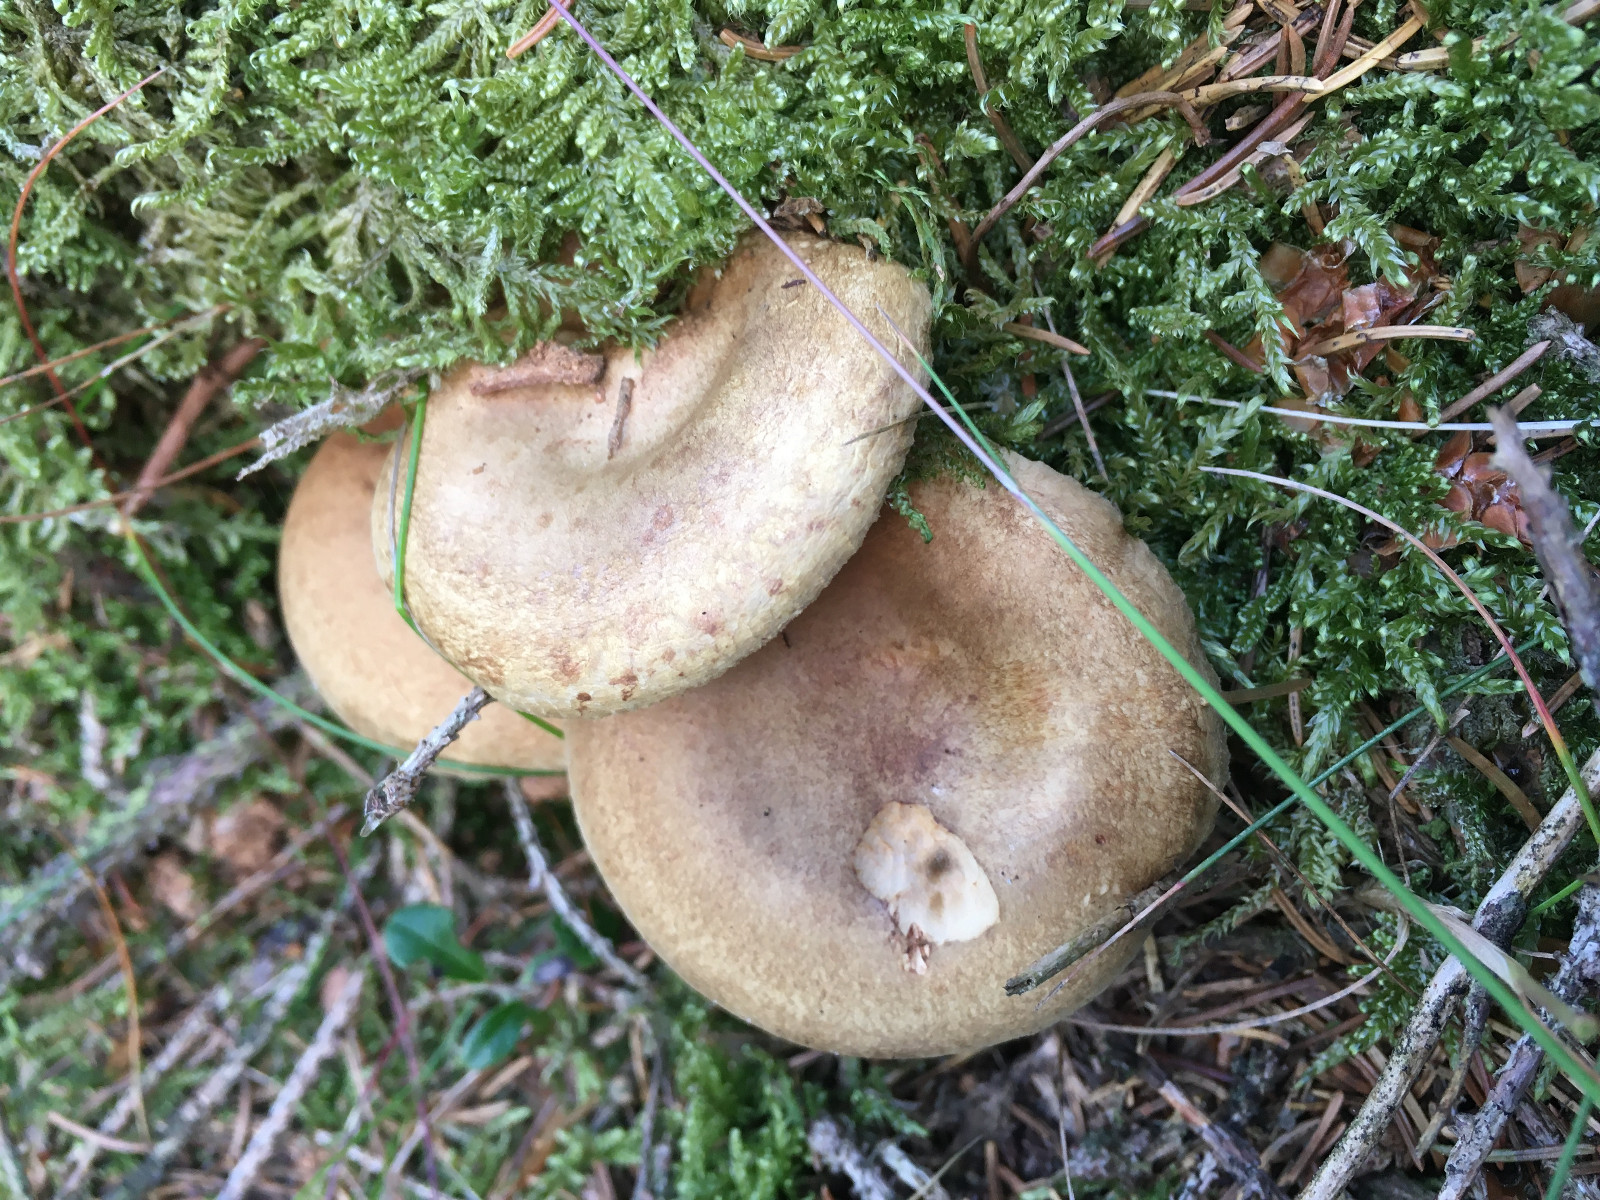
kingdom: Fungi
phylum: Basidiomycota
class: Agaricomycetes
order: Boletales
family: Paxillaceae
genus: Paxillus
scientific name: Paxillus involutus
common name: almindelig netbladhat
